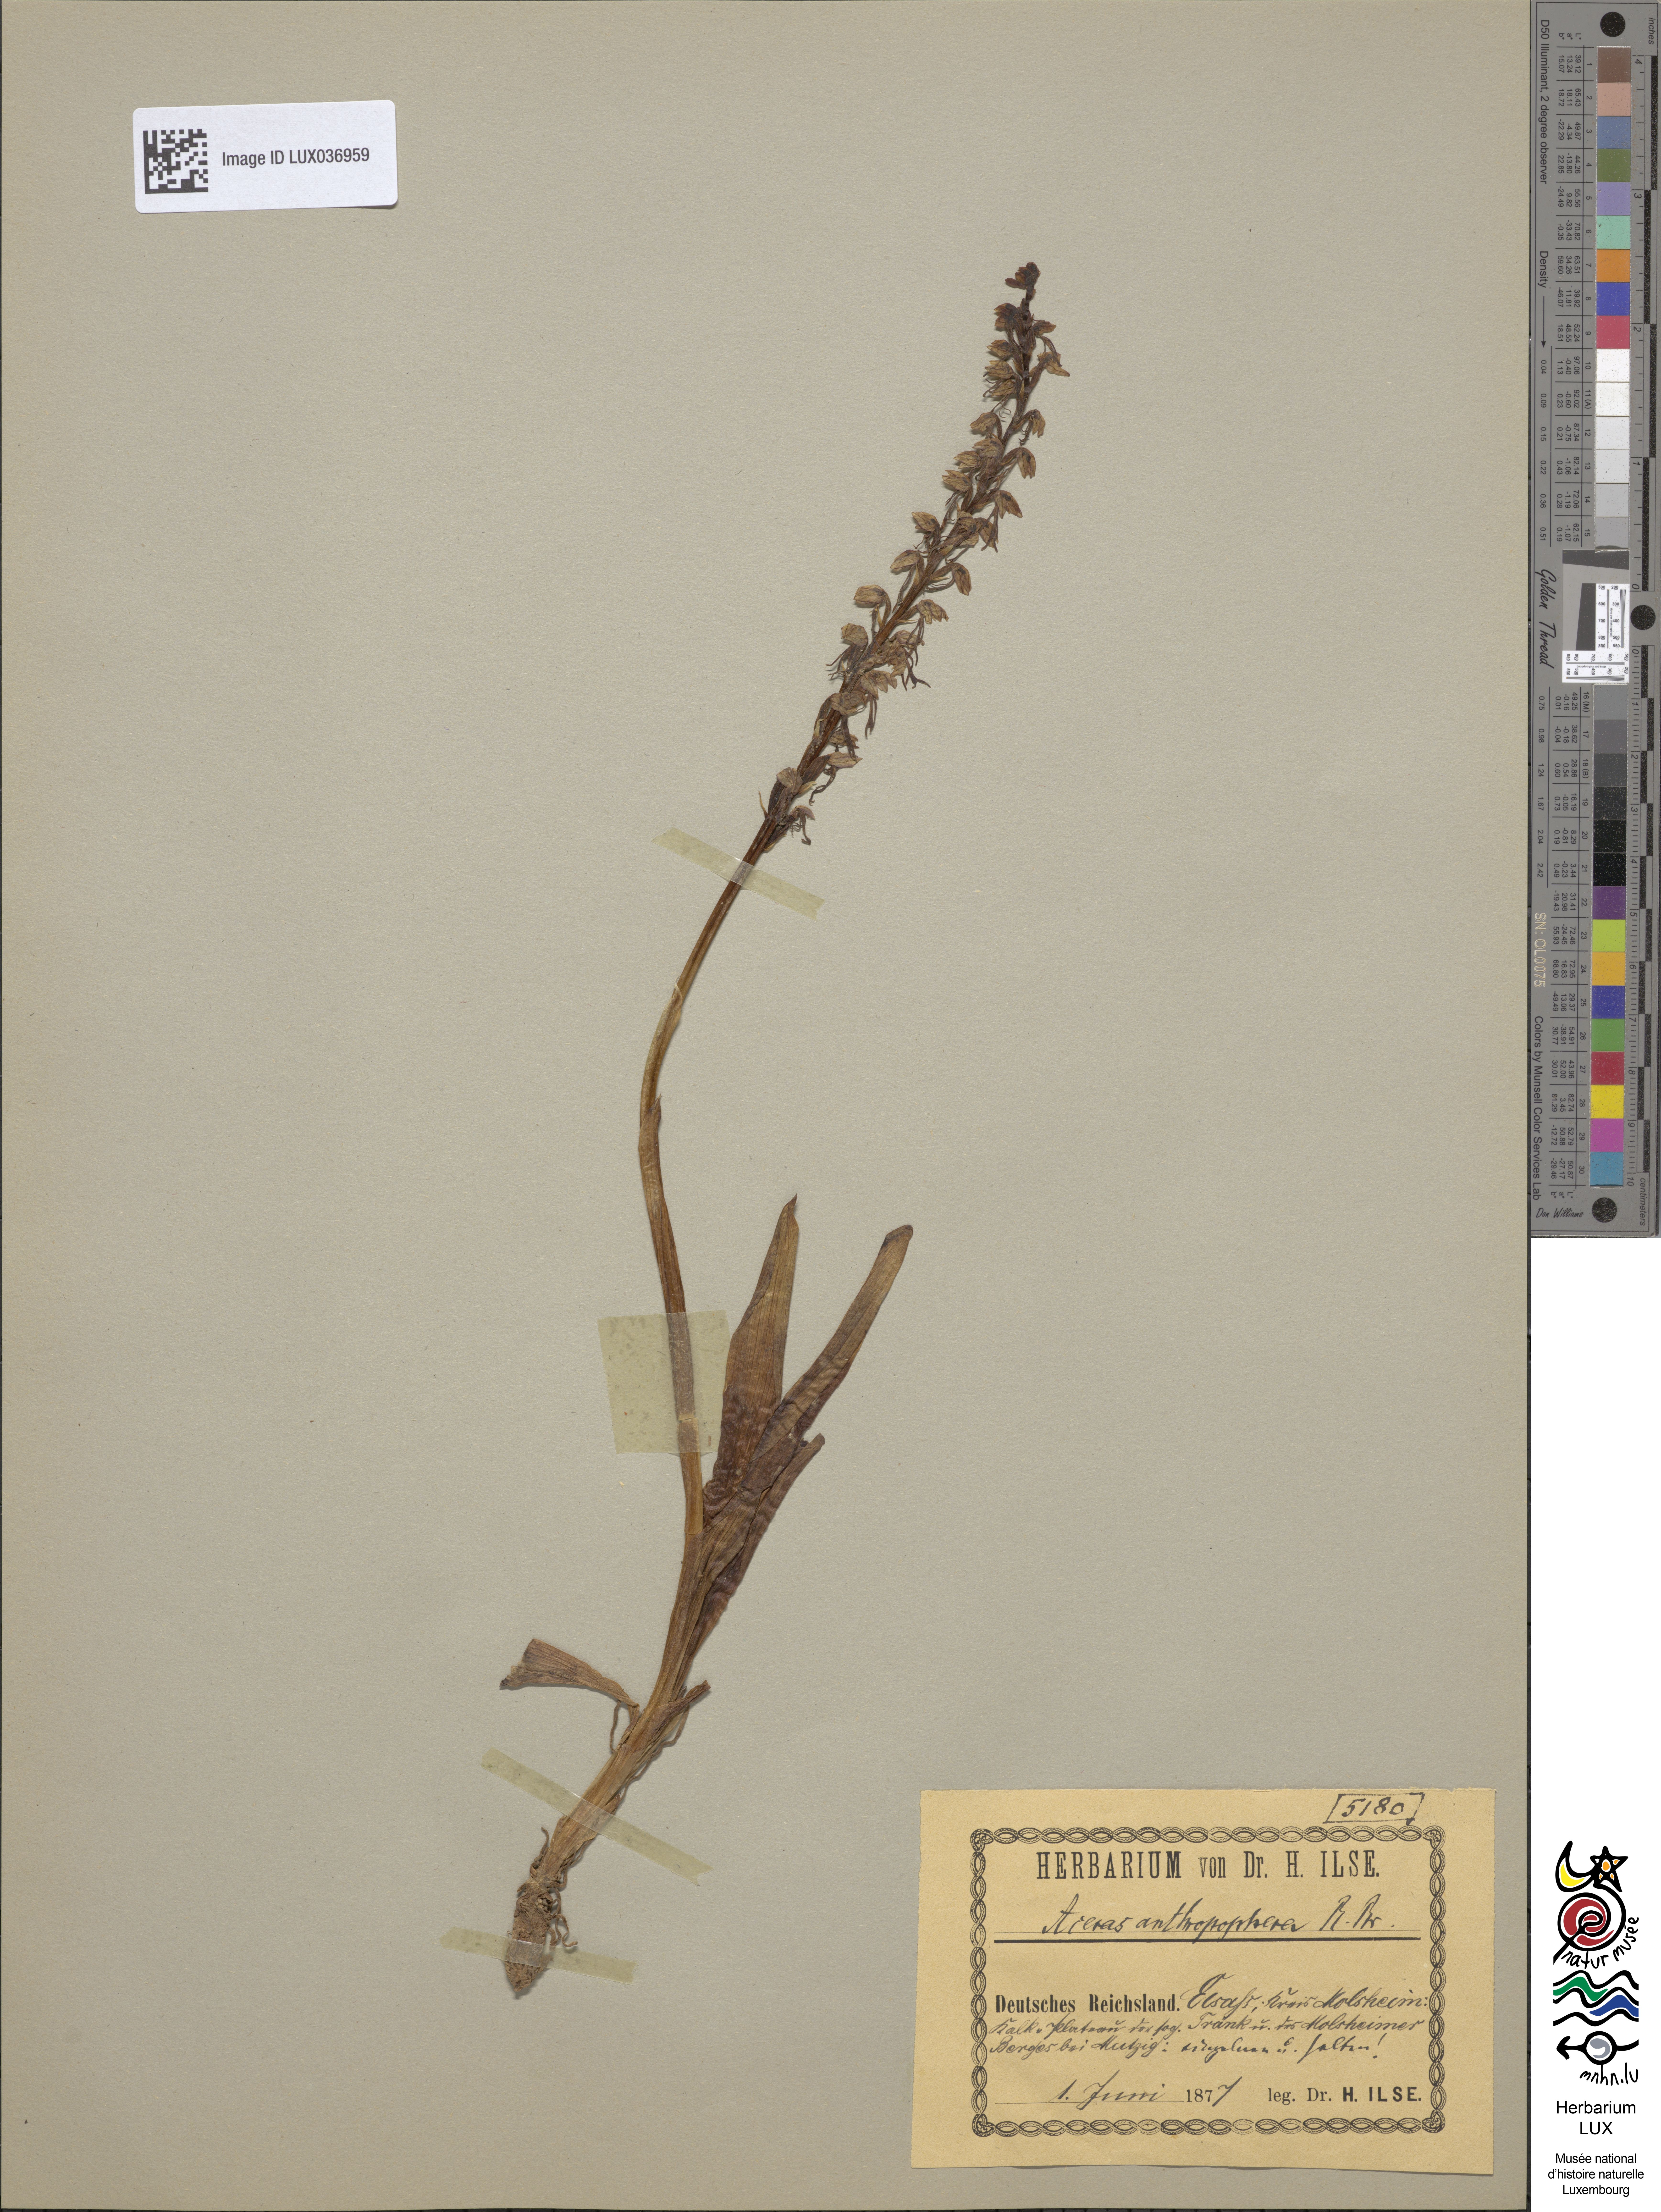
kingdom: Plantae
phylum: Tracheophyta
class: Liliopsida
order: Asparagales
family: Orchidaceae
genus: Orchis
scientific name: Orchis anthropophora
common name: Man orchid
